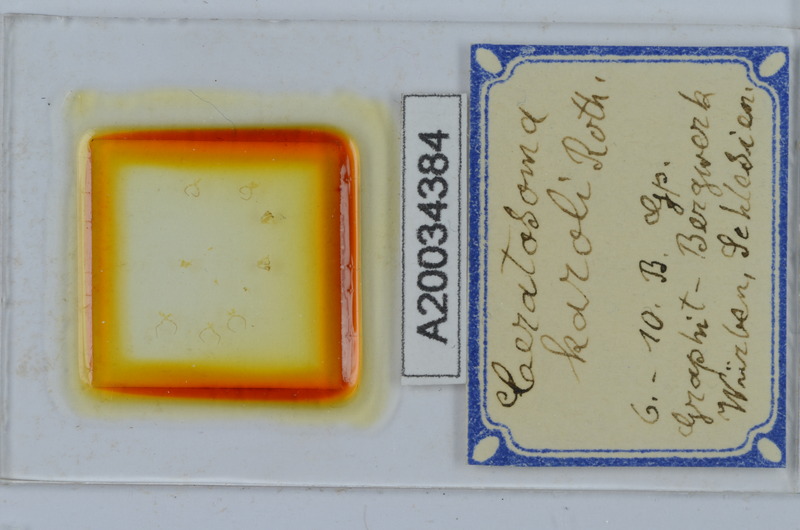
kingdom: Animalia
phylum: Arthropoda
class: Diplopoda
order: Chordeumatida
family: Craspedosomatidae
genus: Ochogona
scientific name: Ochogona caroli
